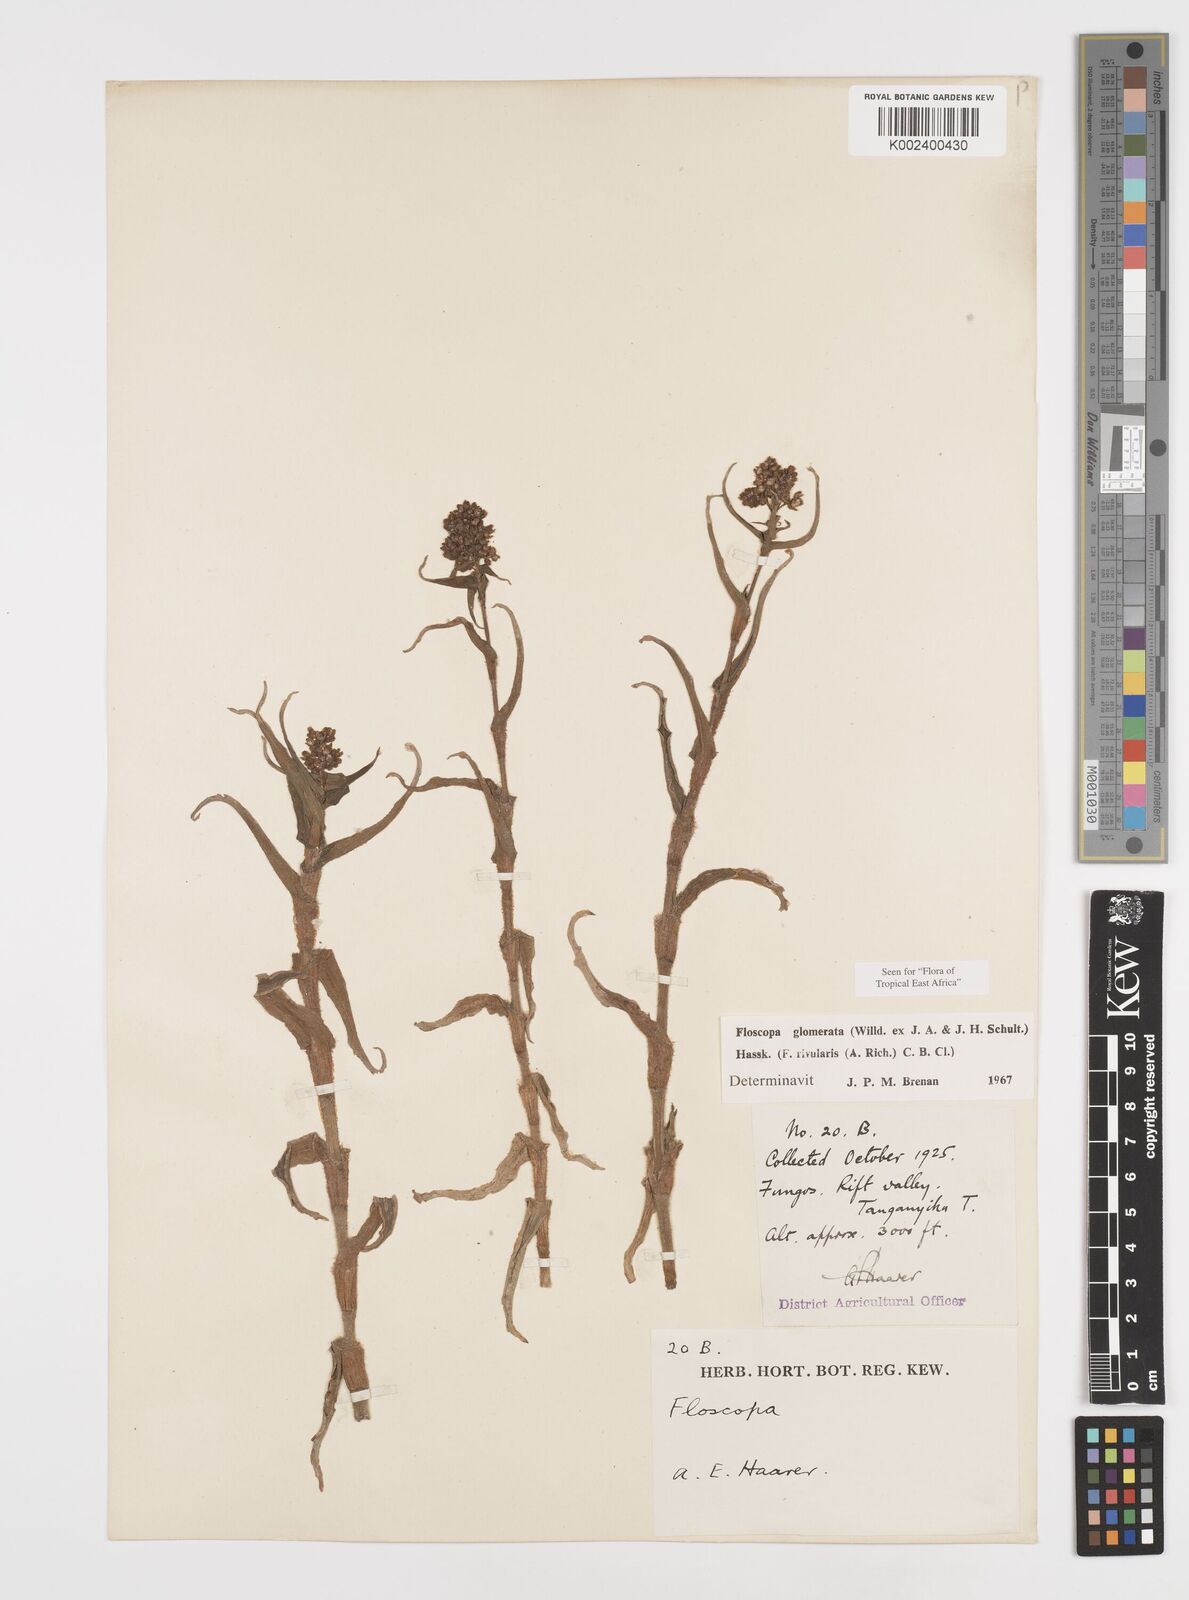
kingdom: Plantae
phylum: Tracheophyta
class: Liliopsida
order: Commelinales
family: Commelinaceae
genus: Floscopa
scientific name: Floscopa glomerata
